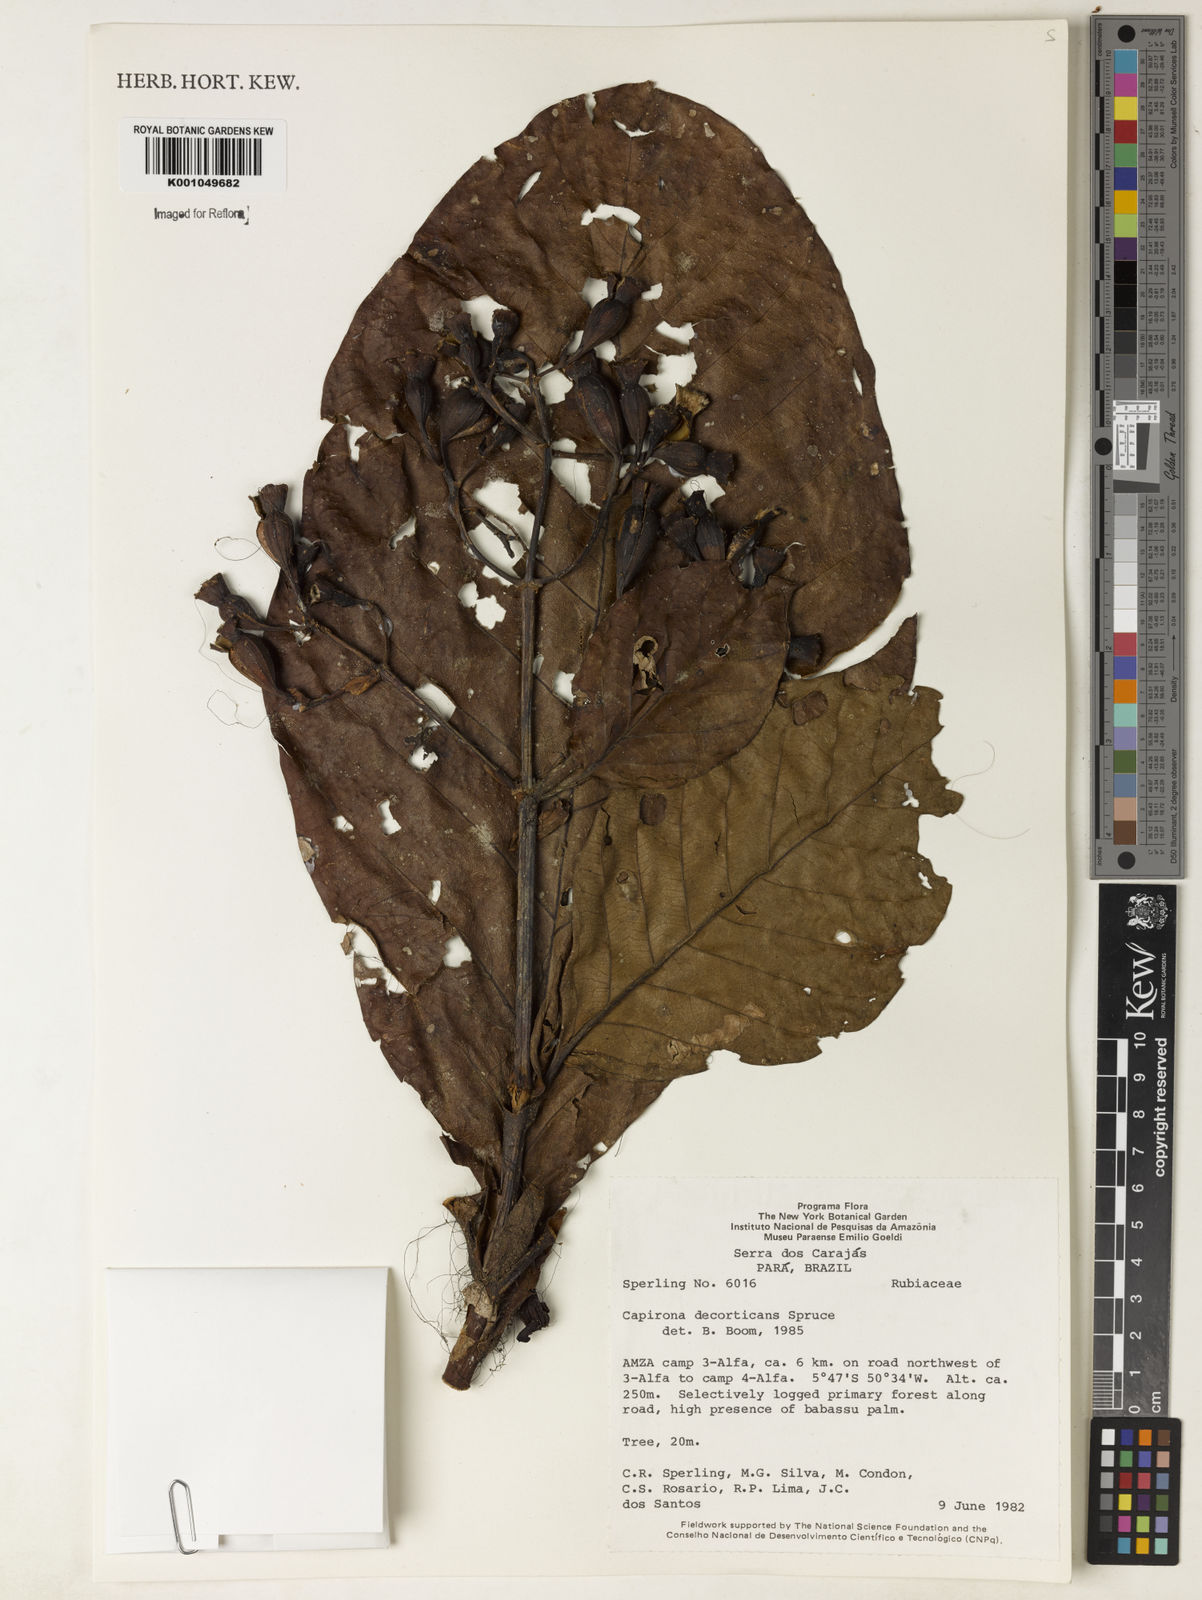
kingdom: Plantae
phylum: Tracheophyta
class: Magnoliopsida
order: Gentianales
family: Rubiaceae
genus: Capirona
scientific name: Capirona macrophylla
